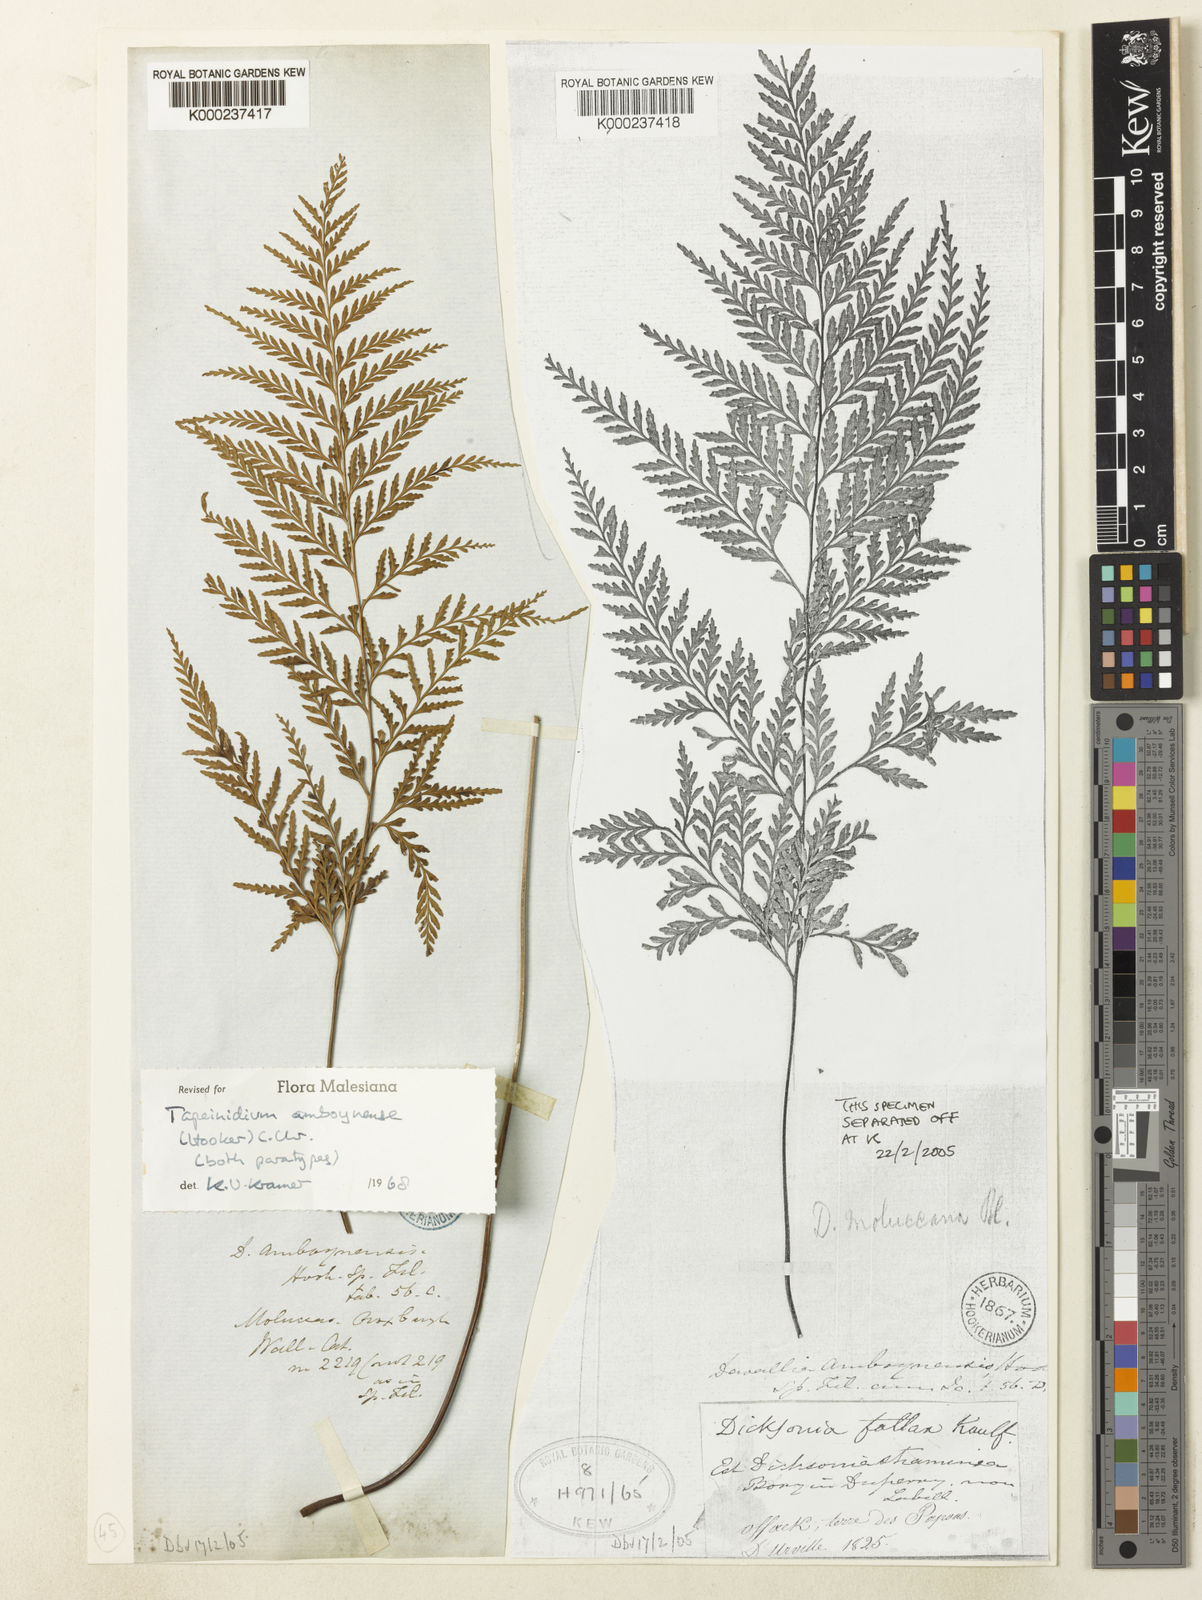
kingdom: Plantae
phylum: Tracheophyta
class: Polypodiopsida
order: Polypodiales
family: Lindsaeaceae
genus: Tapeinidium
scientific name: Tapeinidium moluccanum
